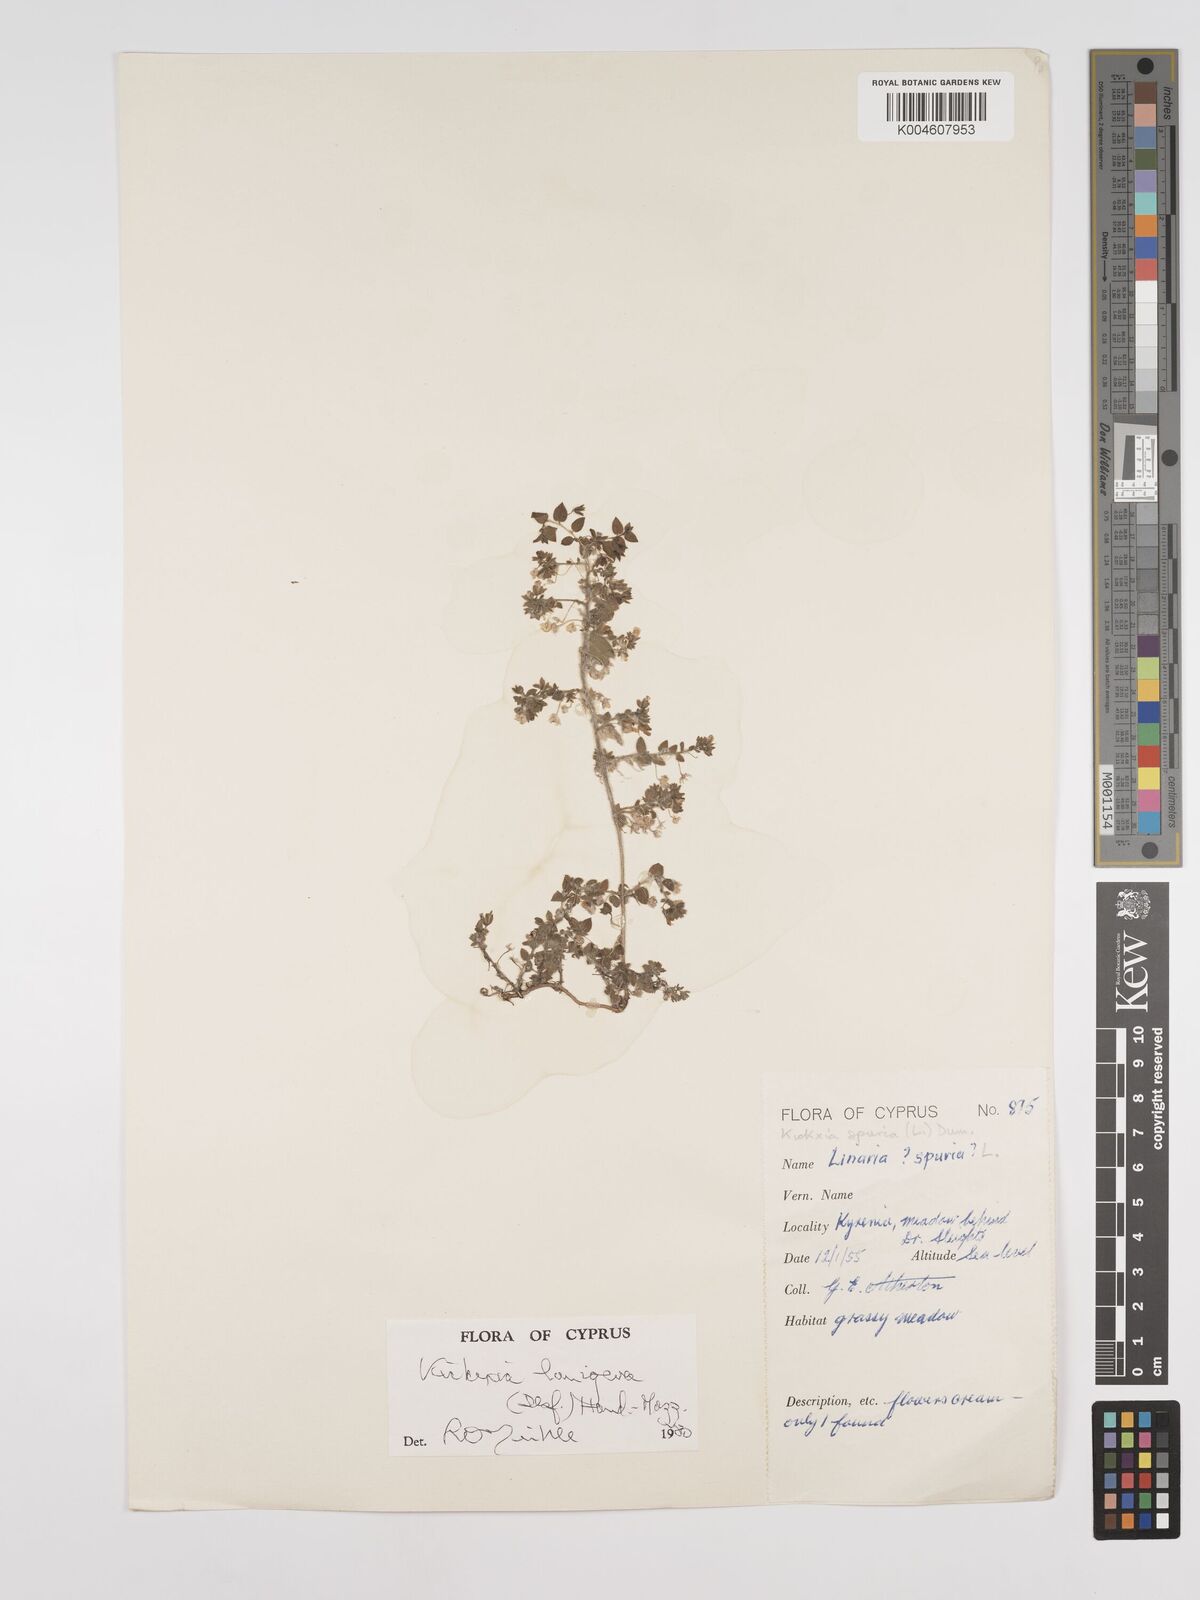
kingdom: Plantae
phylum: Tracheophyta
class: Magnoliopsida
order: Lamiales
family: Plantaginaceae
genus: Kickxia
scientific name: Kickxia lanigera
